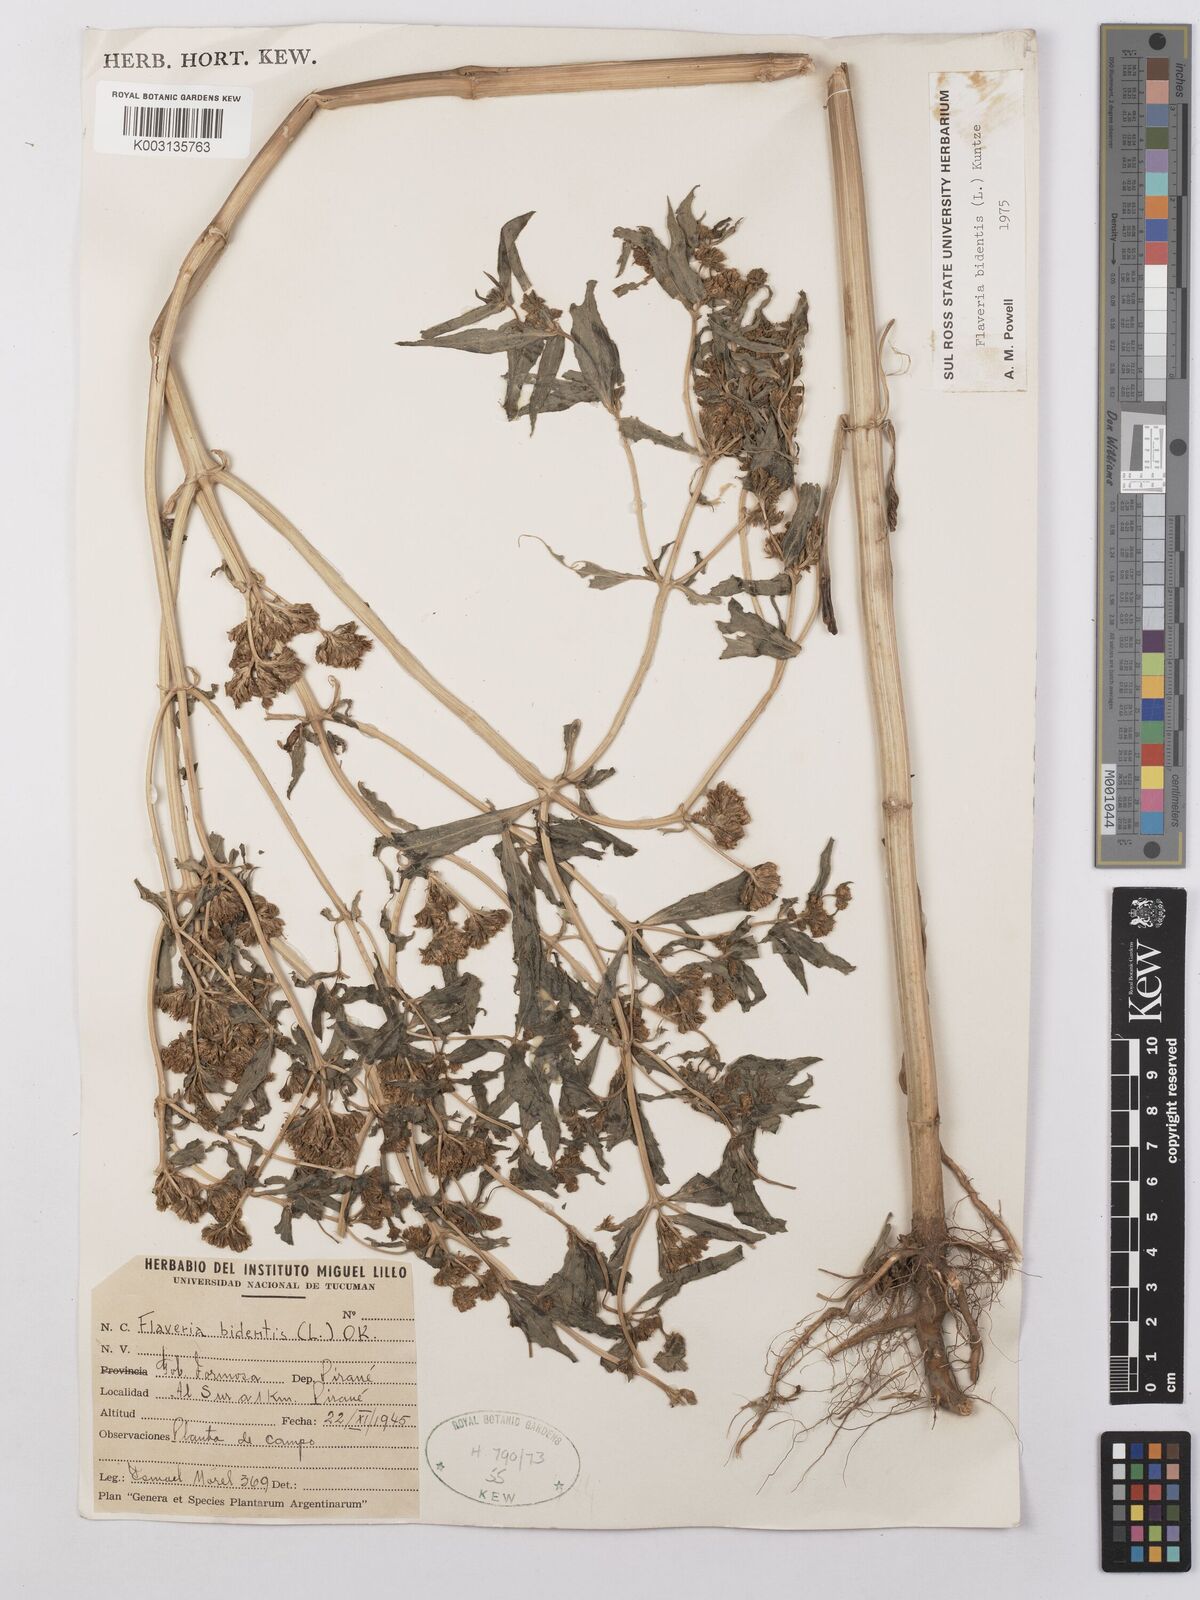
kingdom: Plantae
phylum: Tracheophyta
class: Magnoliopsida
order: Asterales
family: Asteraceae
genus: Flaveria
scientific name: Flaveria bidentis
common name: Coastal plain yellowtops
